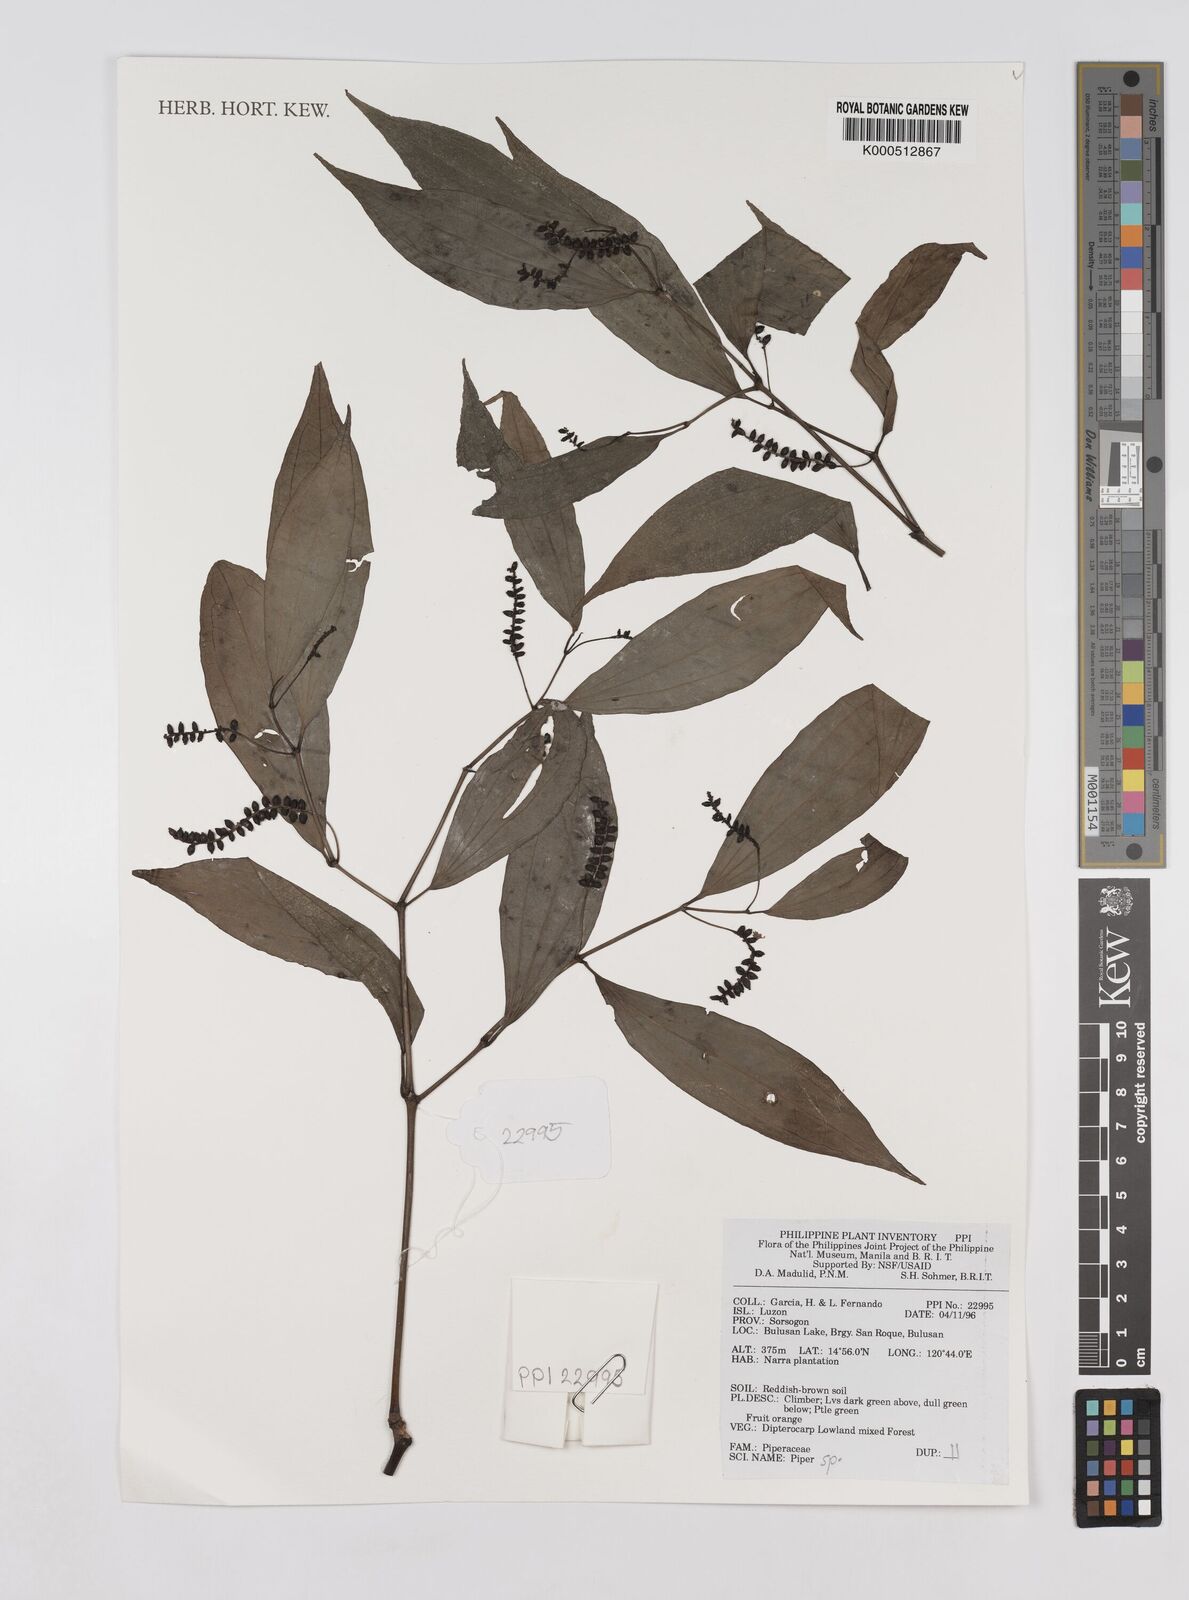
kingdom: Plantae
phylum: Tracheophyta
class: Magnoliopsida
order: Piperales
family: Piperaceae
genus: Piper
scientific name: Piper
